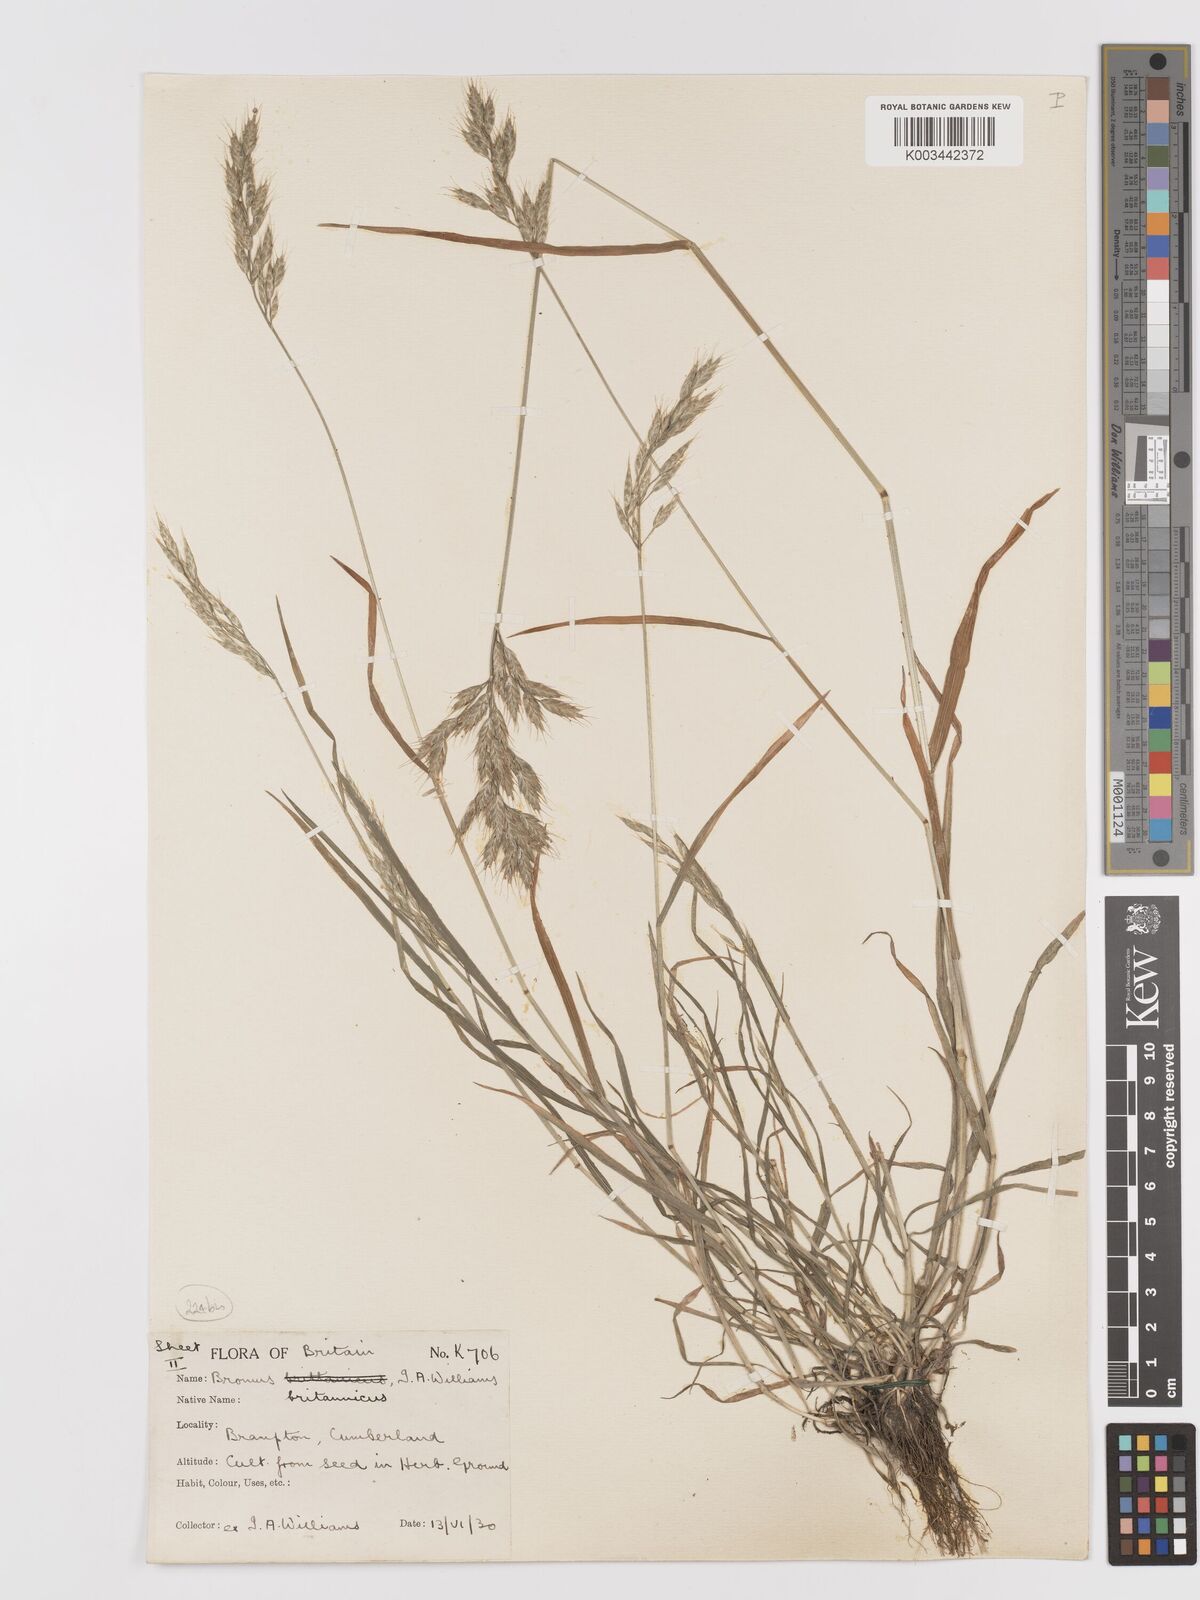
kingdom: Plantae
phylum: Tracheophyta
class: Liliopsida
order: Poales
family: Poaceae
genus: Bromus
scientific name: Bromus lepidus
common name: Slender soft-brome
